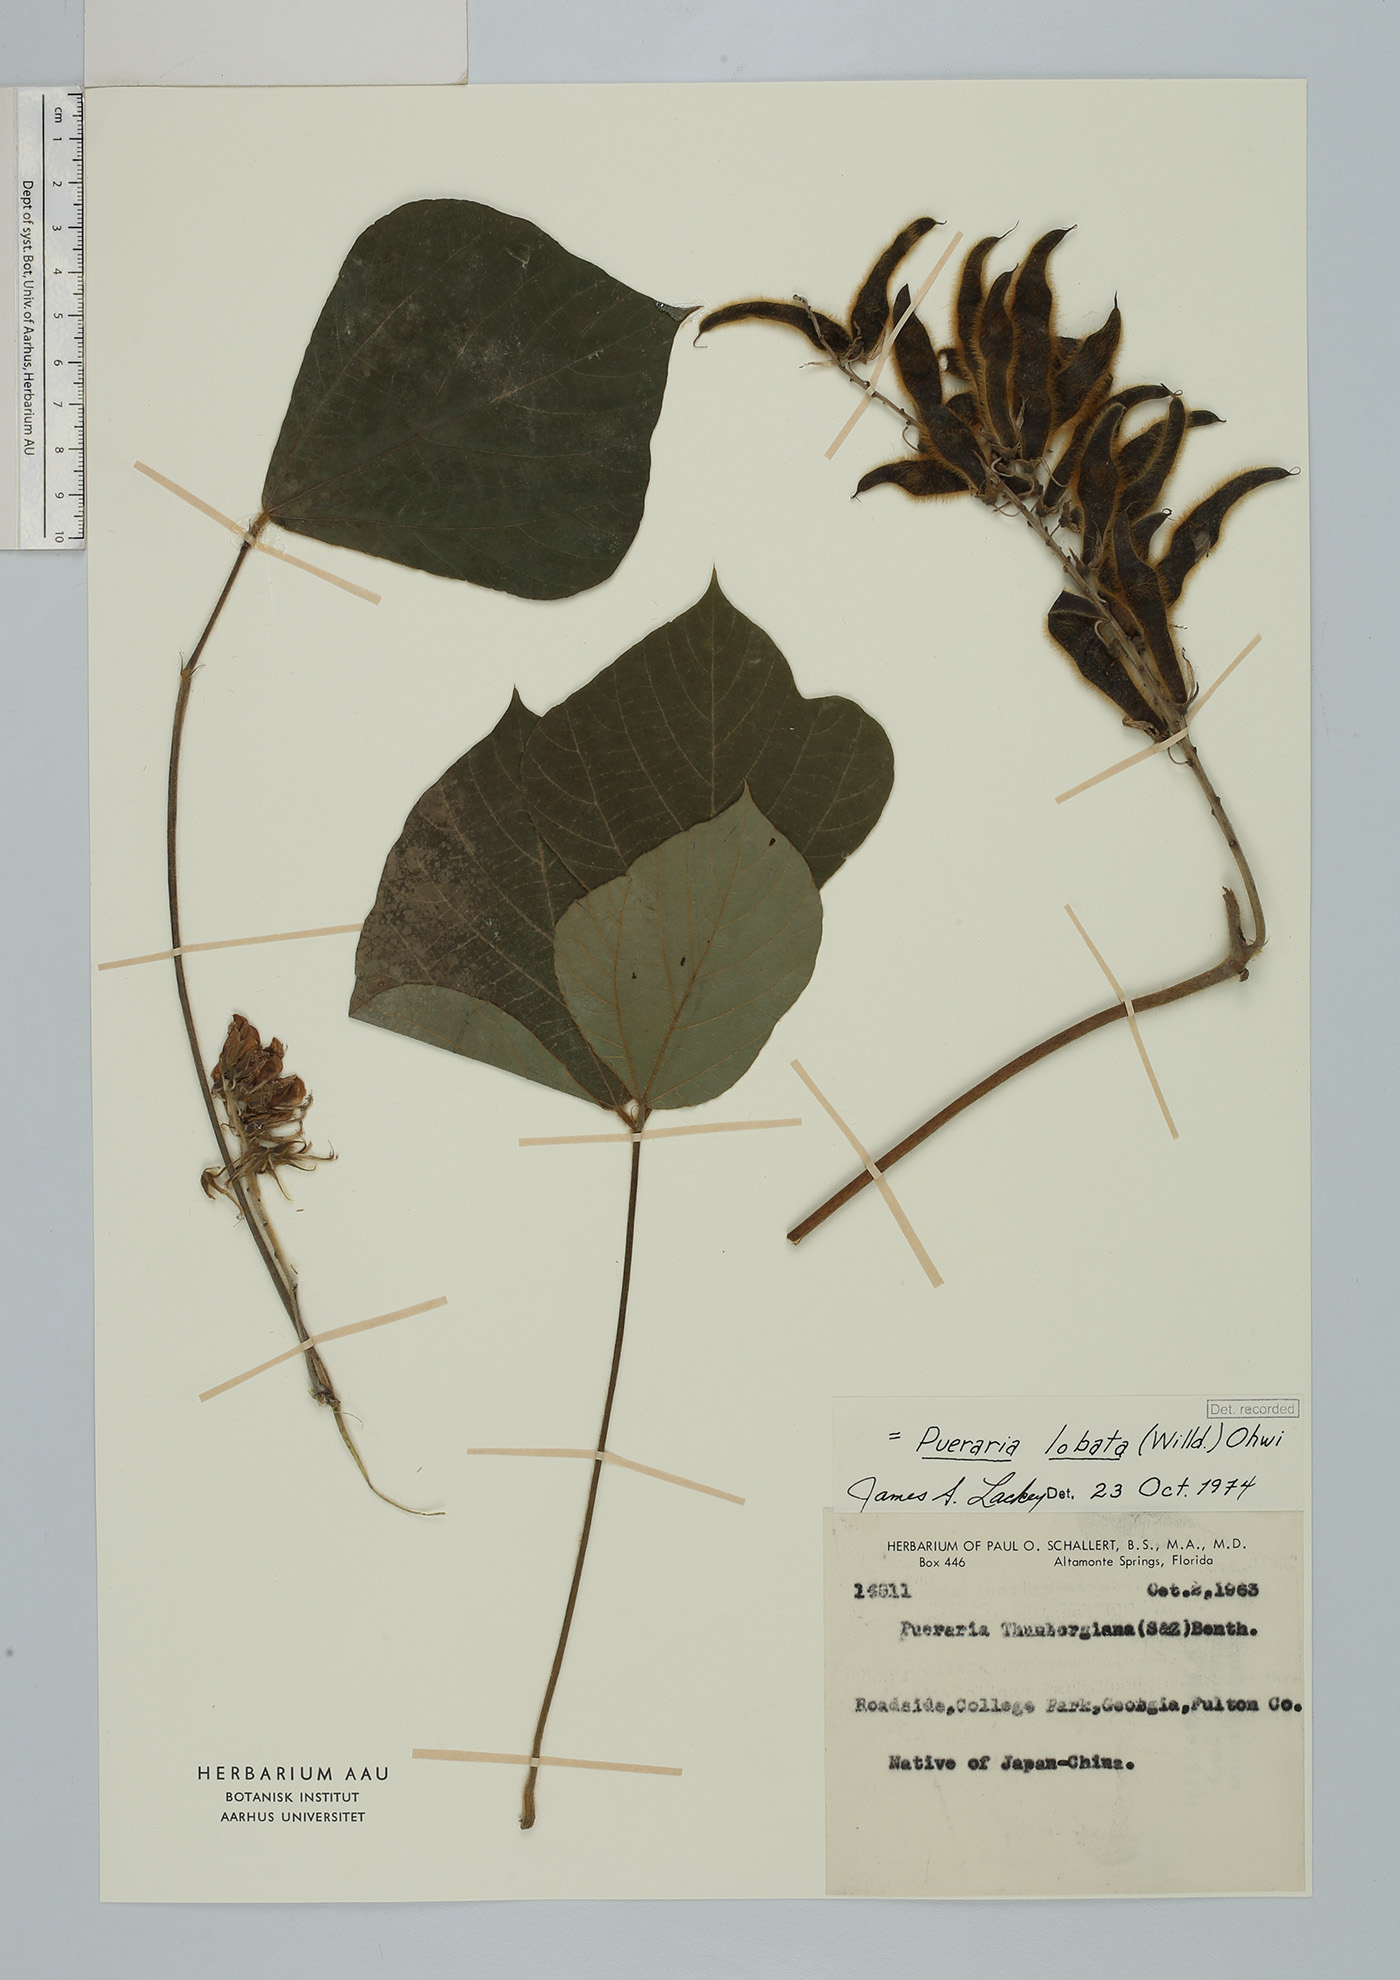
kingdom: Plantae
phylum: Tracheophyta
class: Magnoliopsida
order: Fabales
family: Fabaceae
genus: Pueraria
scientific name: Pueraria montana
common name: Kudzu
